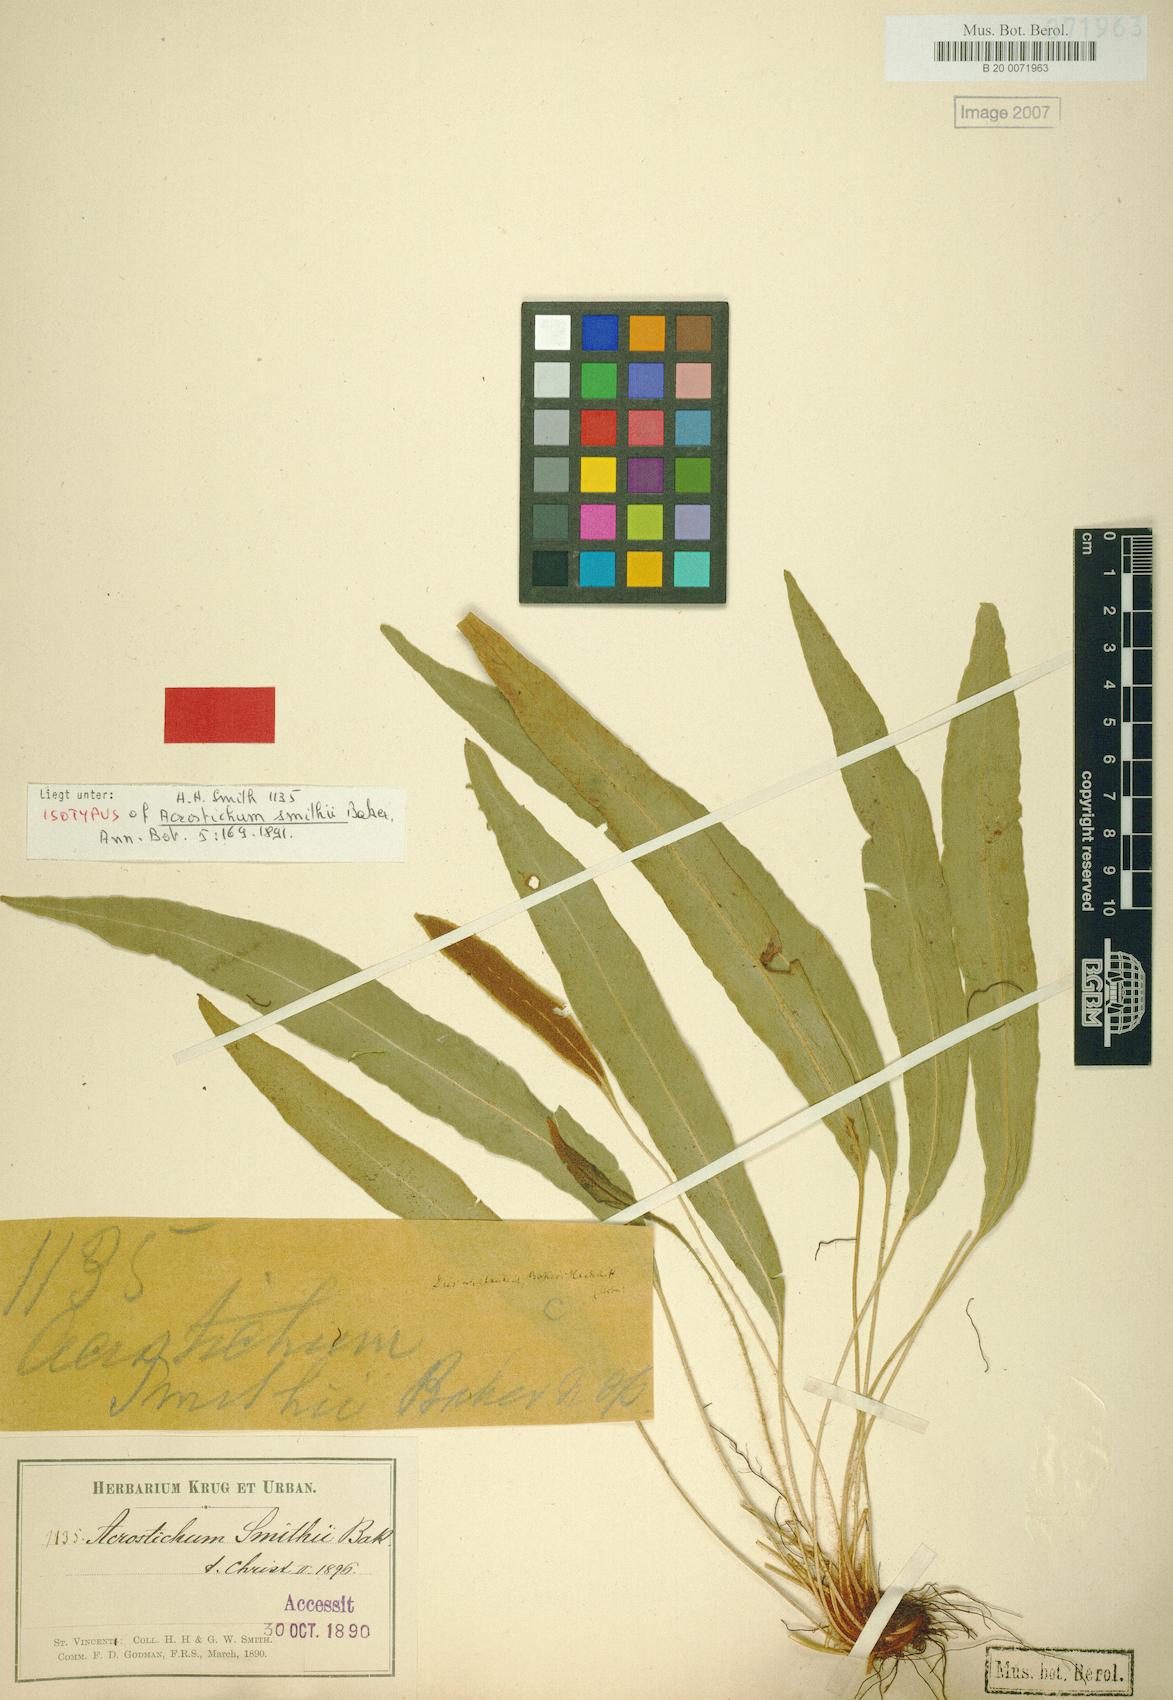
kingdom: Plantae
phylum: Tracheophyta
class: Polypodiopsida
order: Polypodiales
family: Dryopteridaceae
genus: Elaphoglossum
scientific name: Elaphoglossum smithii
